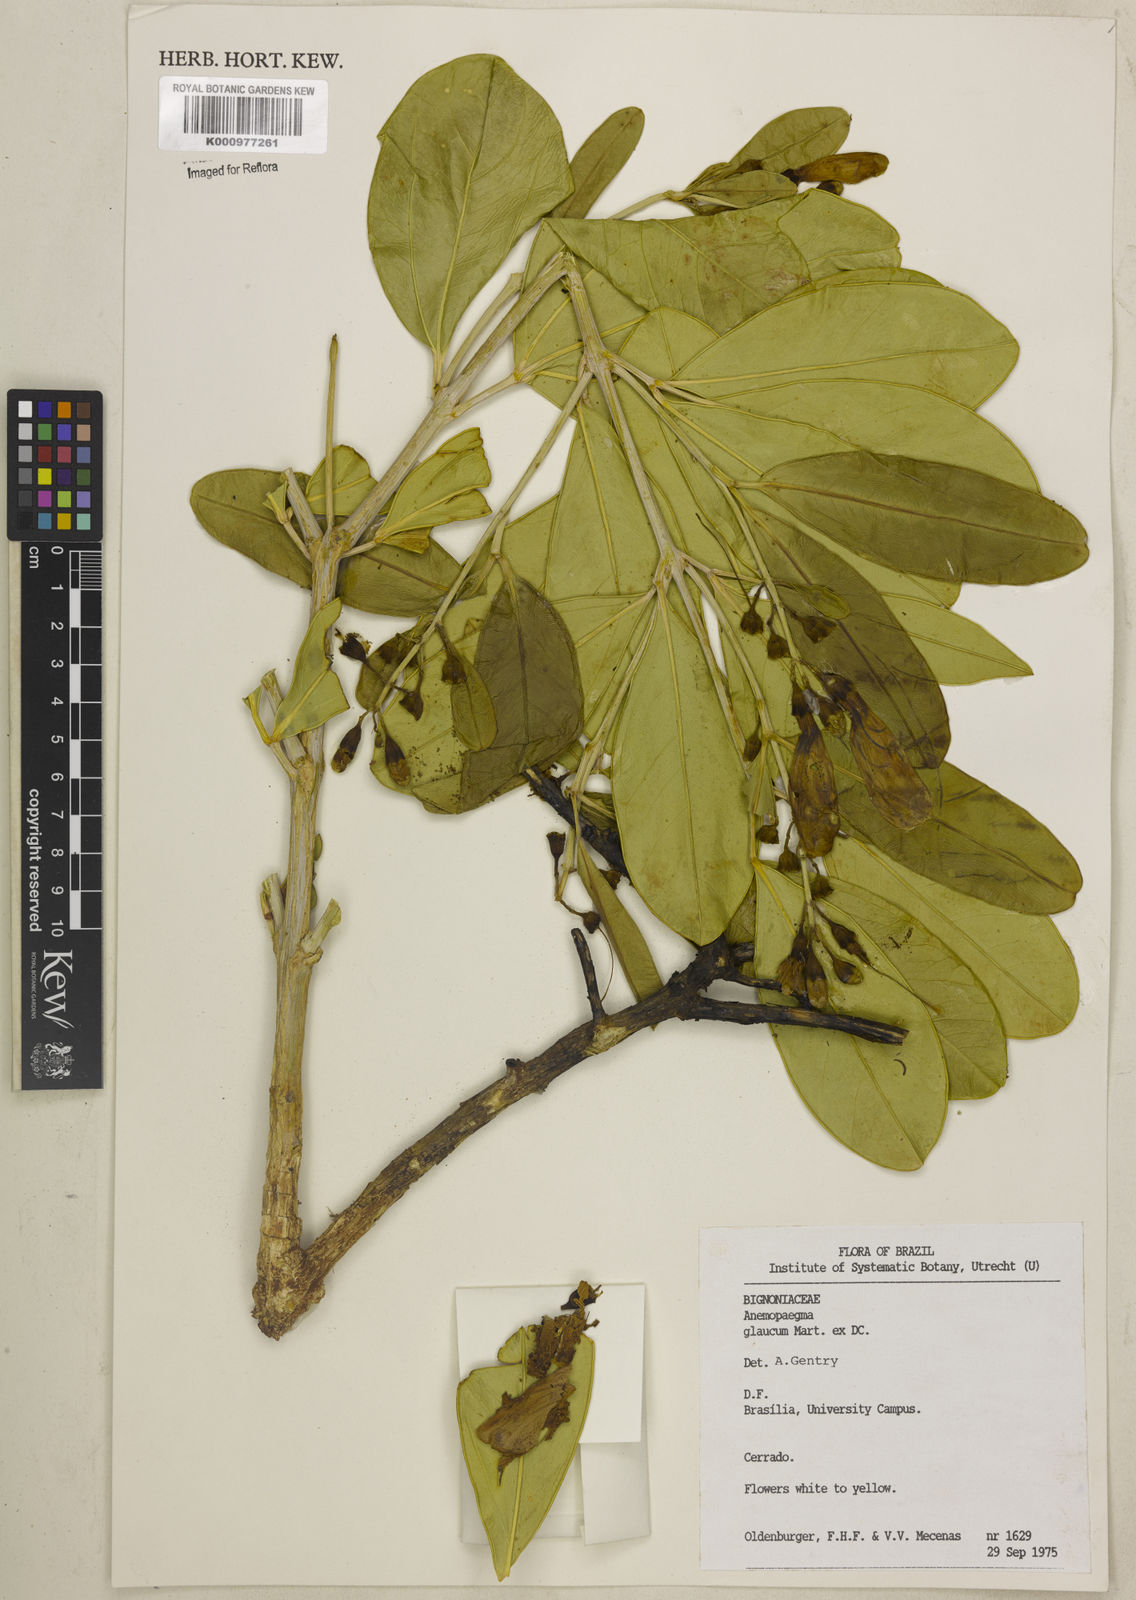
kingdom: Plantae
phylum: Tracheophyta
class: Magnoliopsida
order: Lamiales
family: Bignoniaceae
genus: Anemopaegma
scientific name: Anemopaegma glaucum
